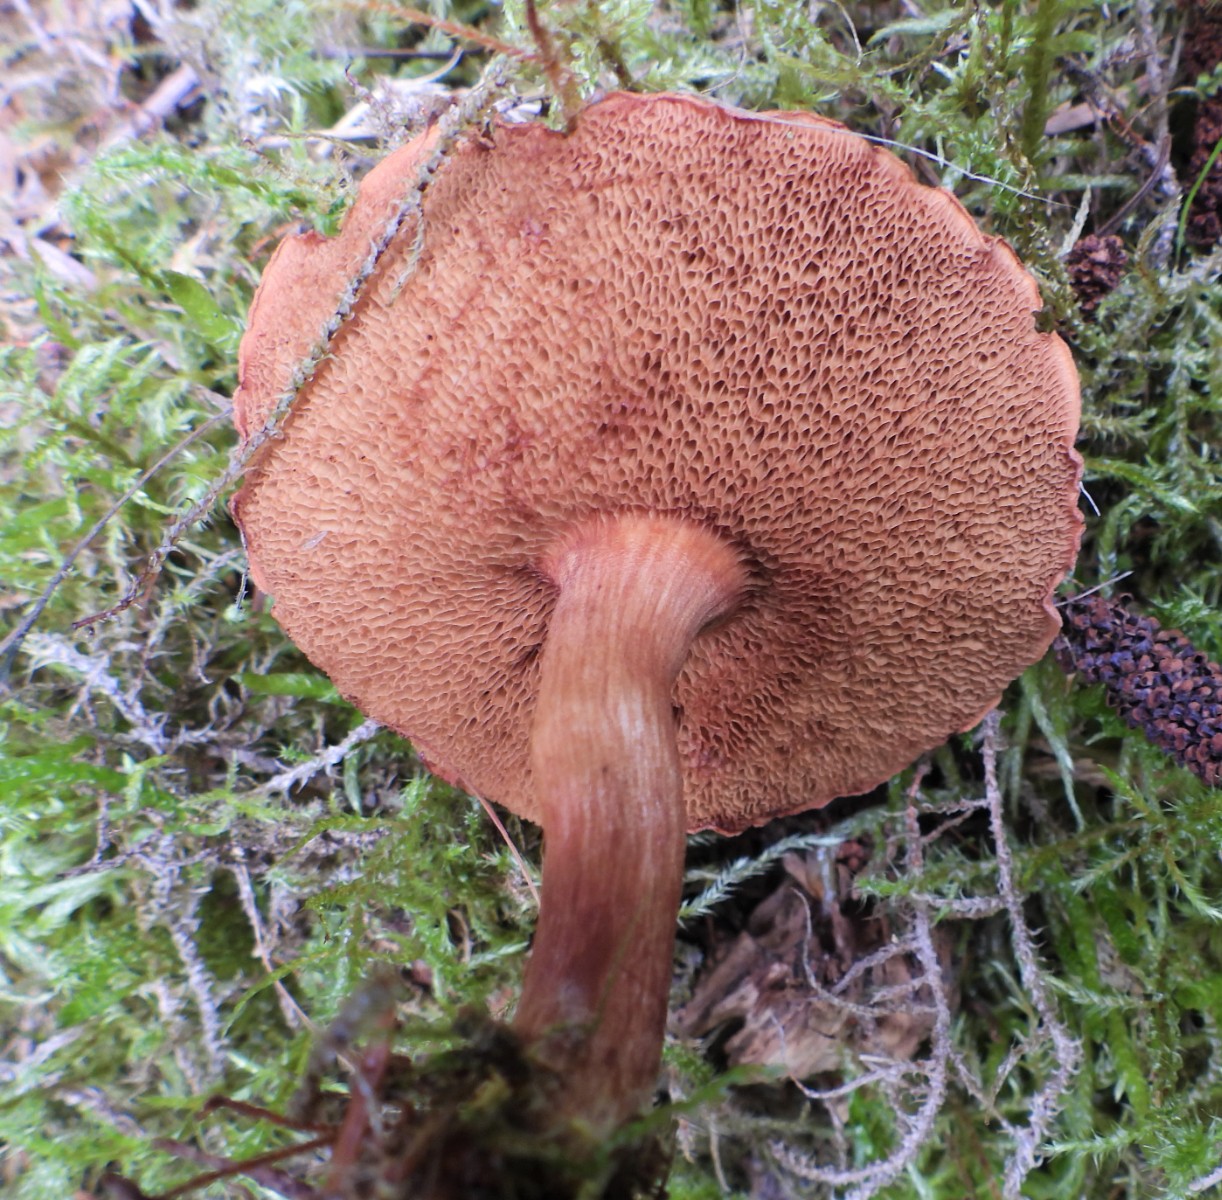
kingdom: Fungi
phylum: Basidiomycota
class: Agaricomycetes
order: Boletales
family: Boletaceae
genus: Chalciporus
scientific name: Chalciporus piperatus
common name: peberrørhat
